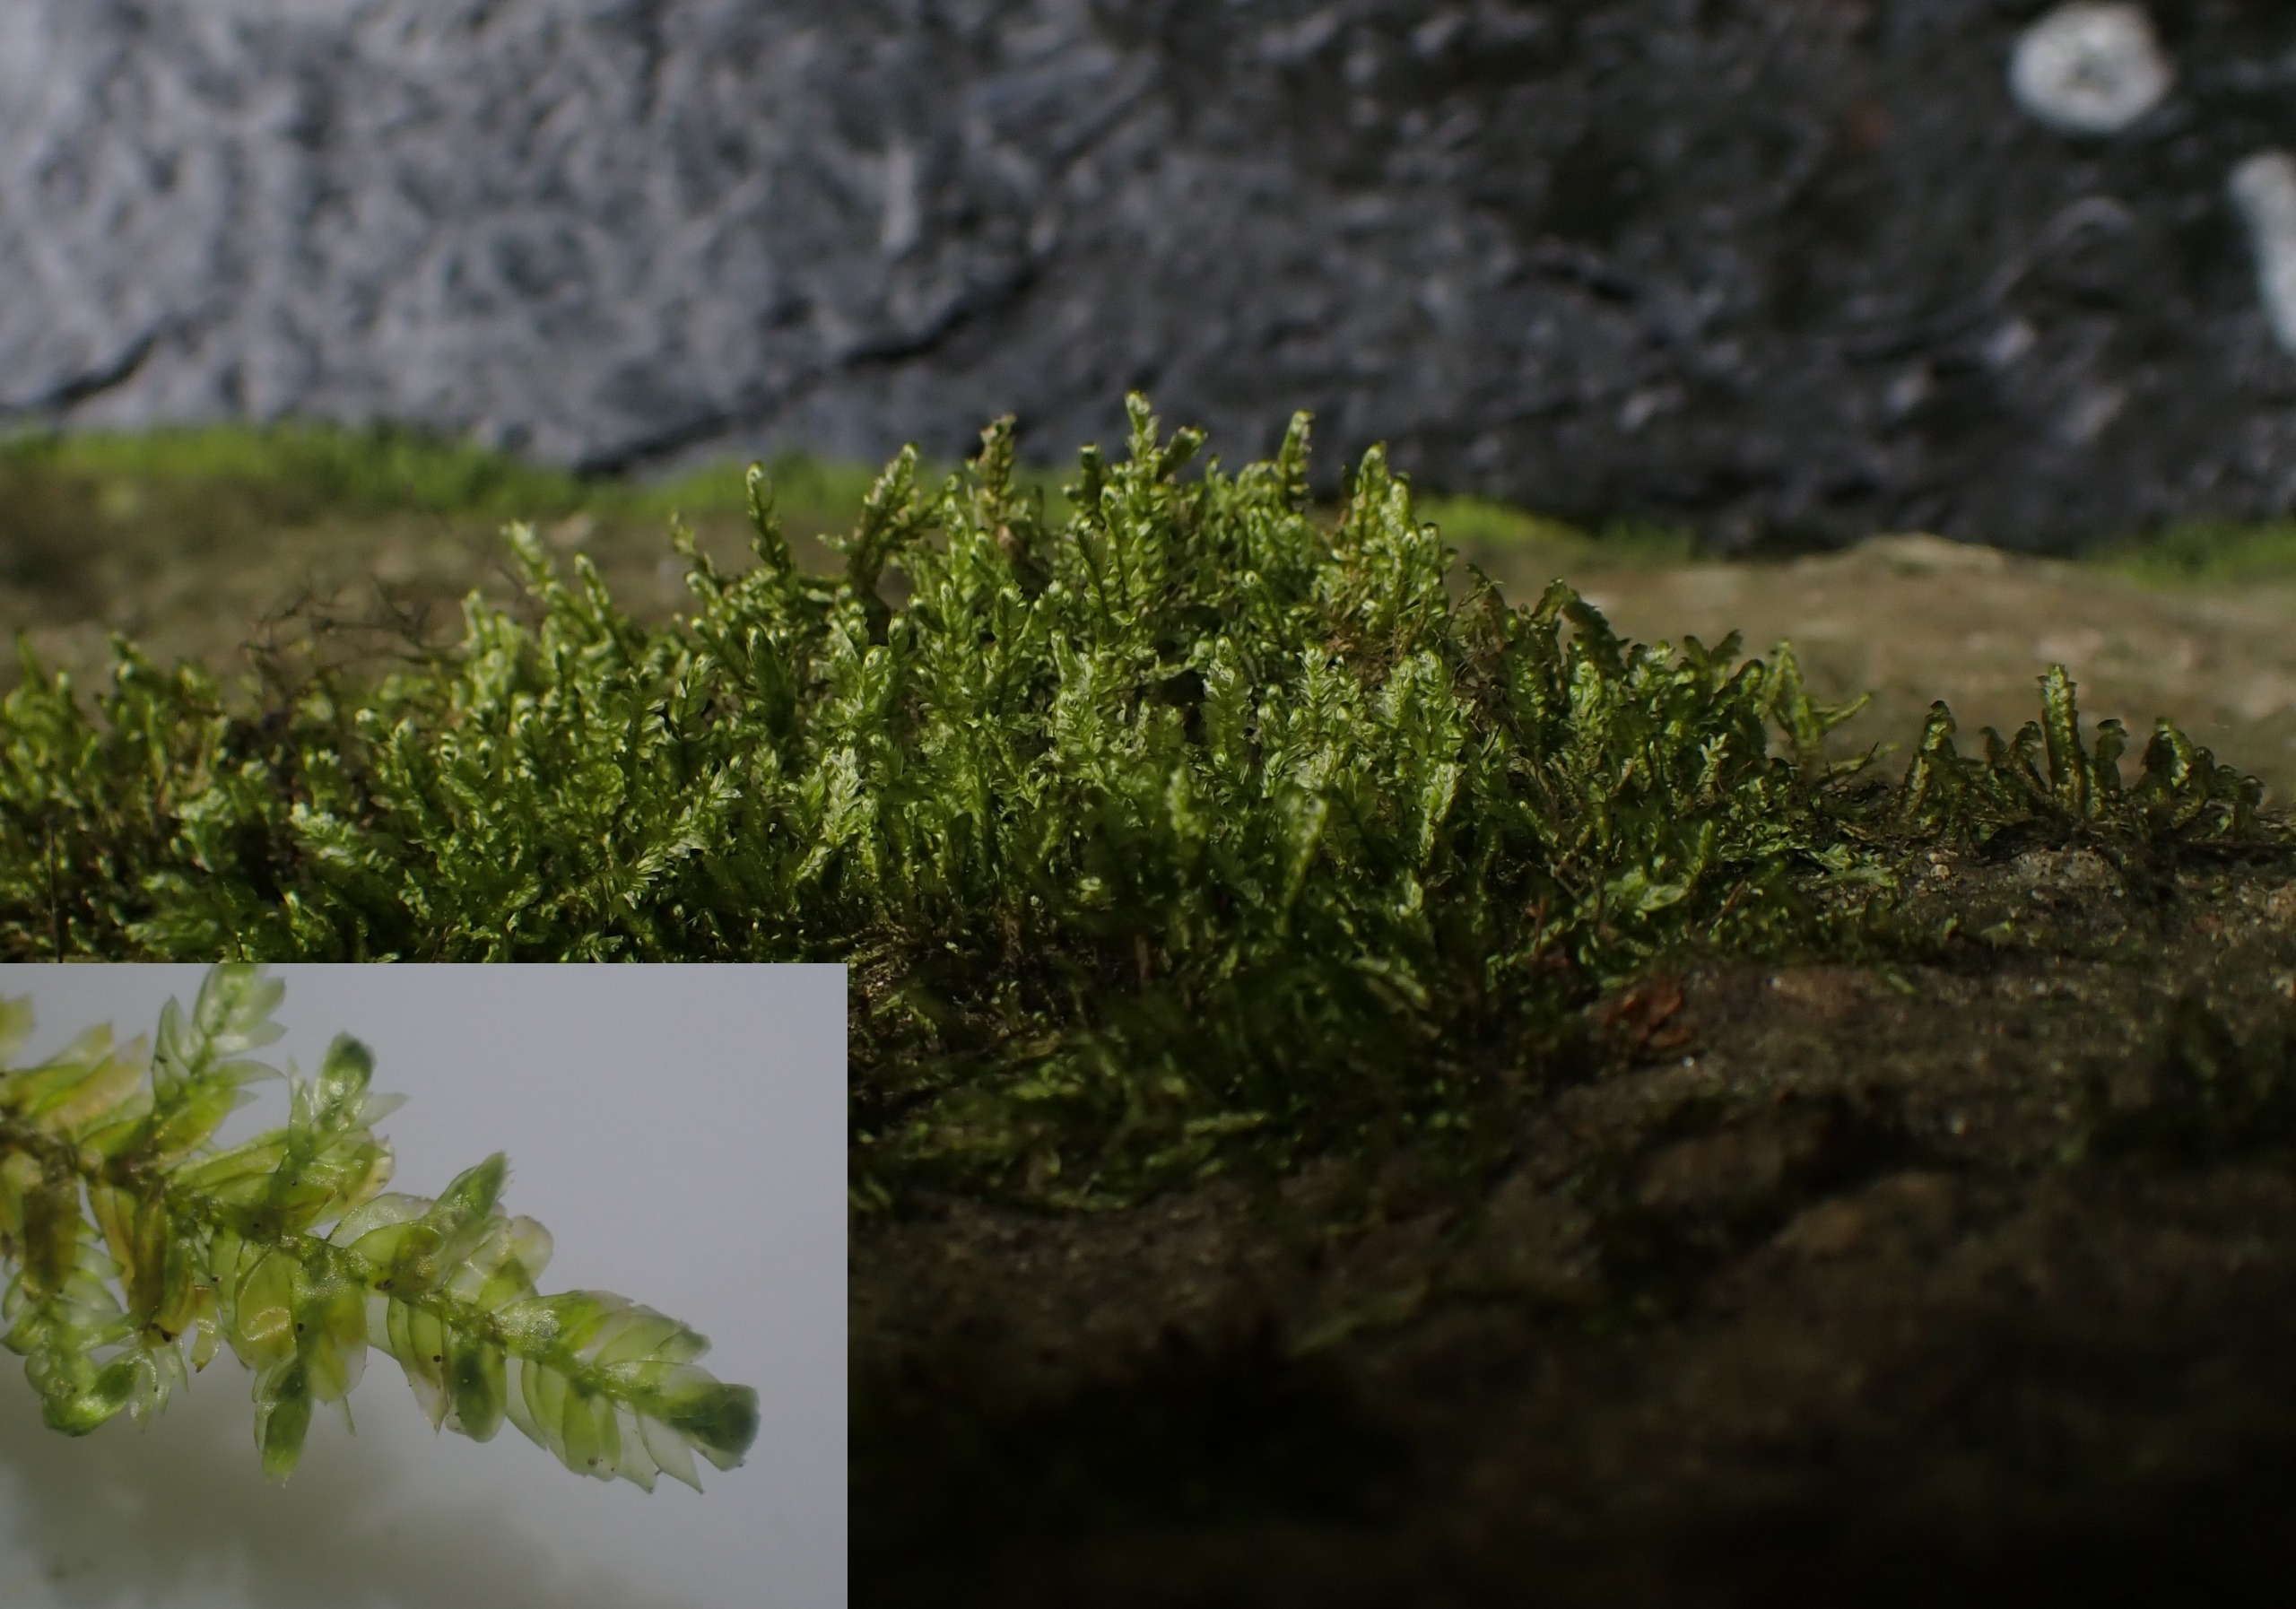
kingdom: Plantae
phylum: Bryophyta
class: Bryopsida
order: Hypnales
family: Neckeraceae
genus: Alleniella
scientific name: Alleniella complanata
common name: Almindelig fladmos
